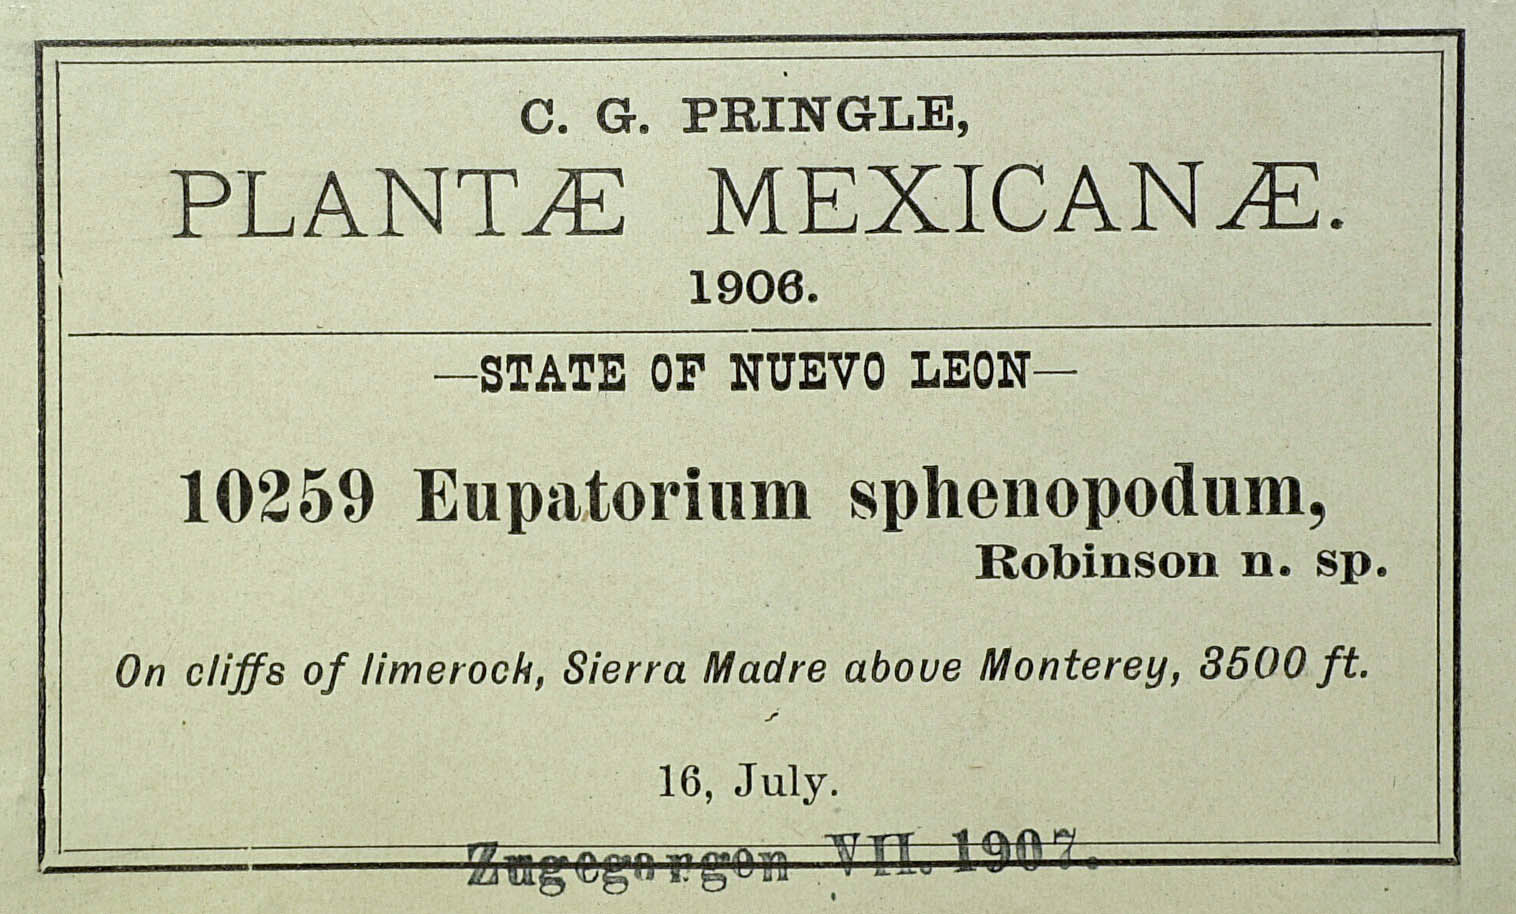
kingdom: Plantae
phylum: Tracheophyta
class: Magnoliopsida
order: Asterales
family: Asteraceae
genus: Flyriella
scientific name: Flyriella parryi
